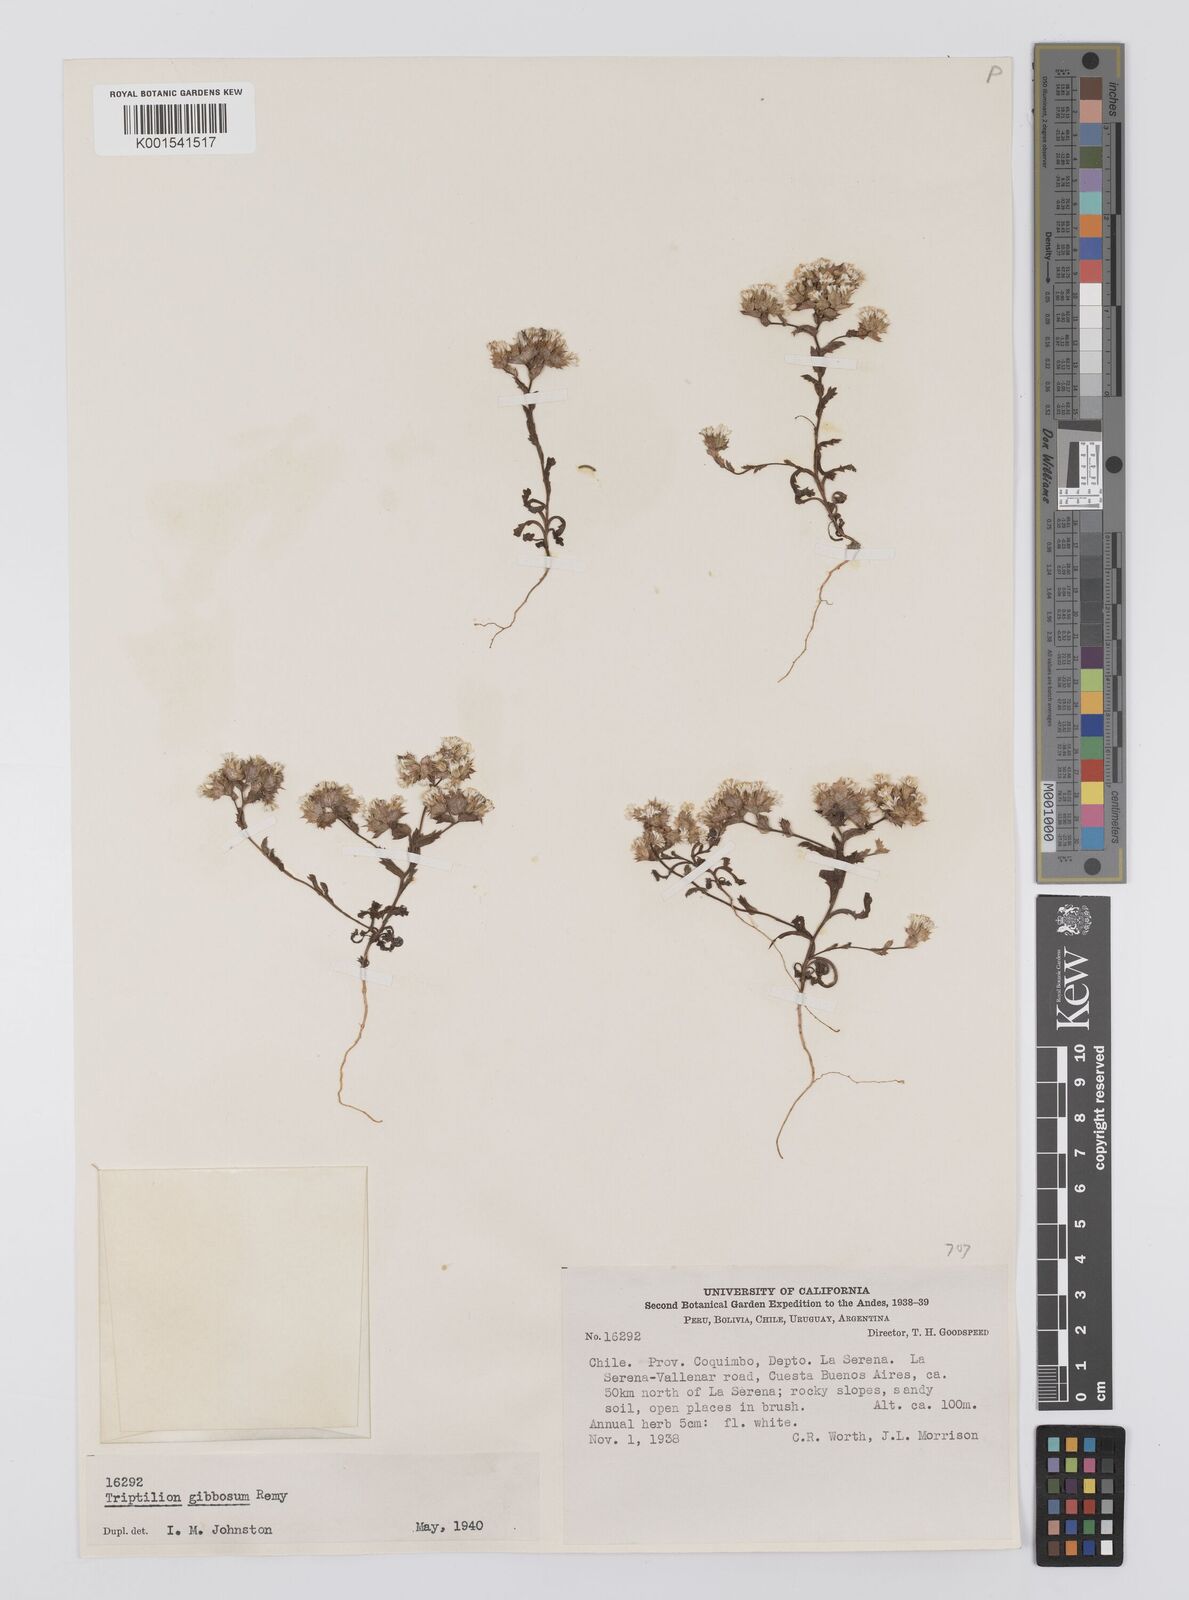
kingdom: Plantae
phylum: Tracheophyta
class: Magnoliopsida
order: Asterales
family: Asteraceae
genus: Triptilion
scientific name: Triptilion gibbosum
